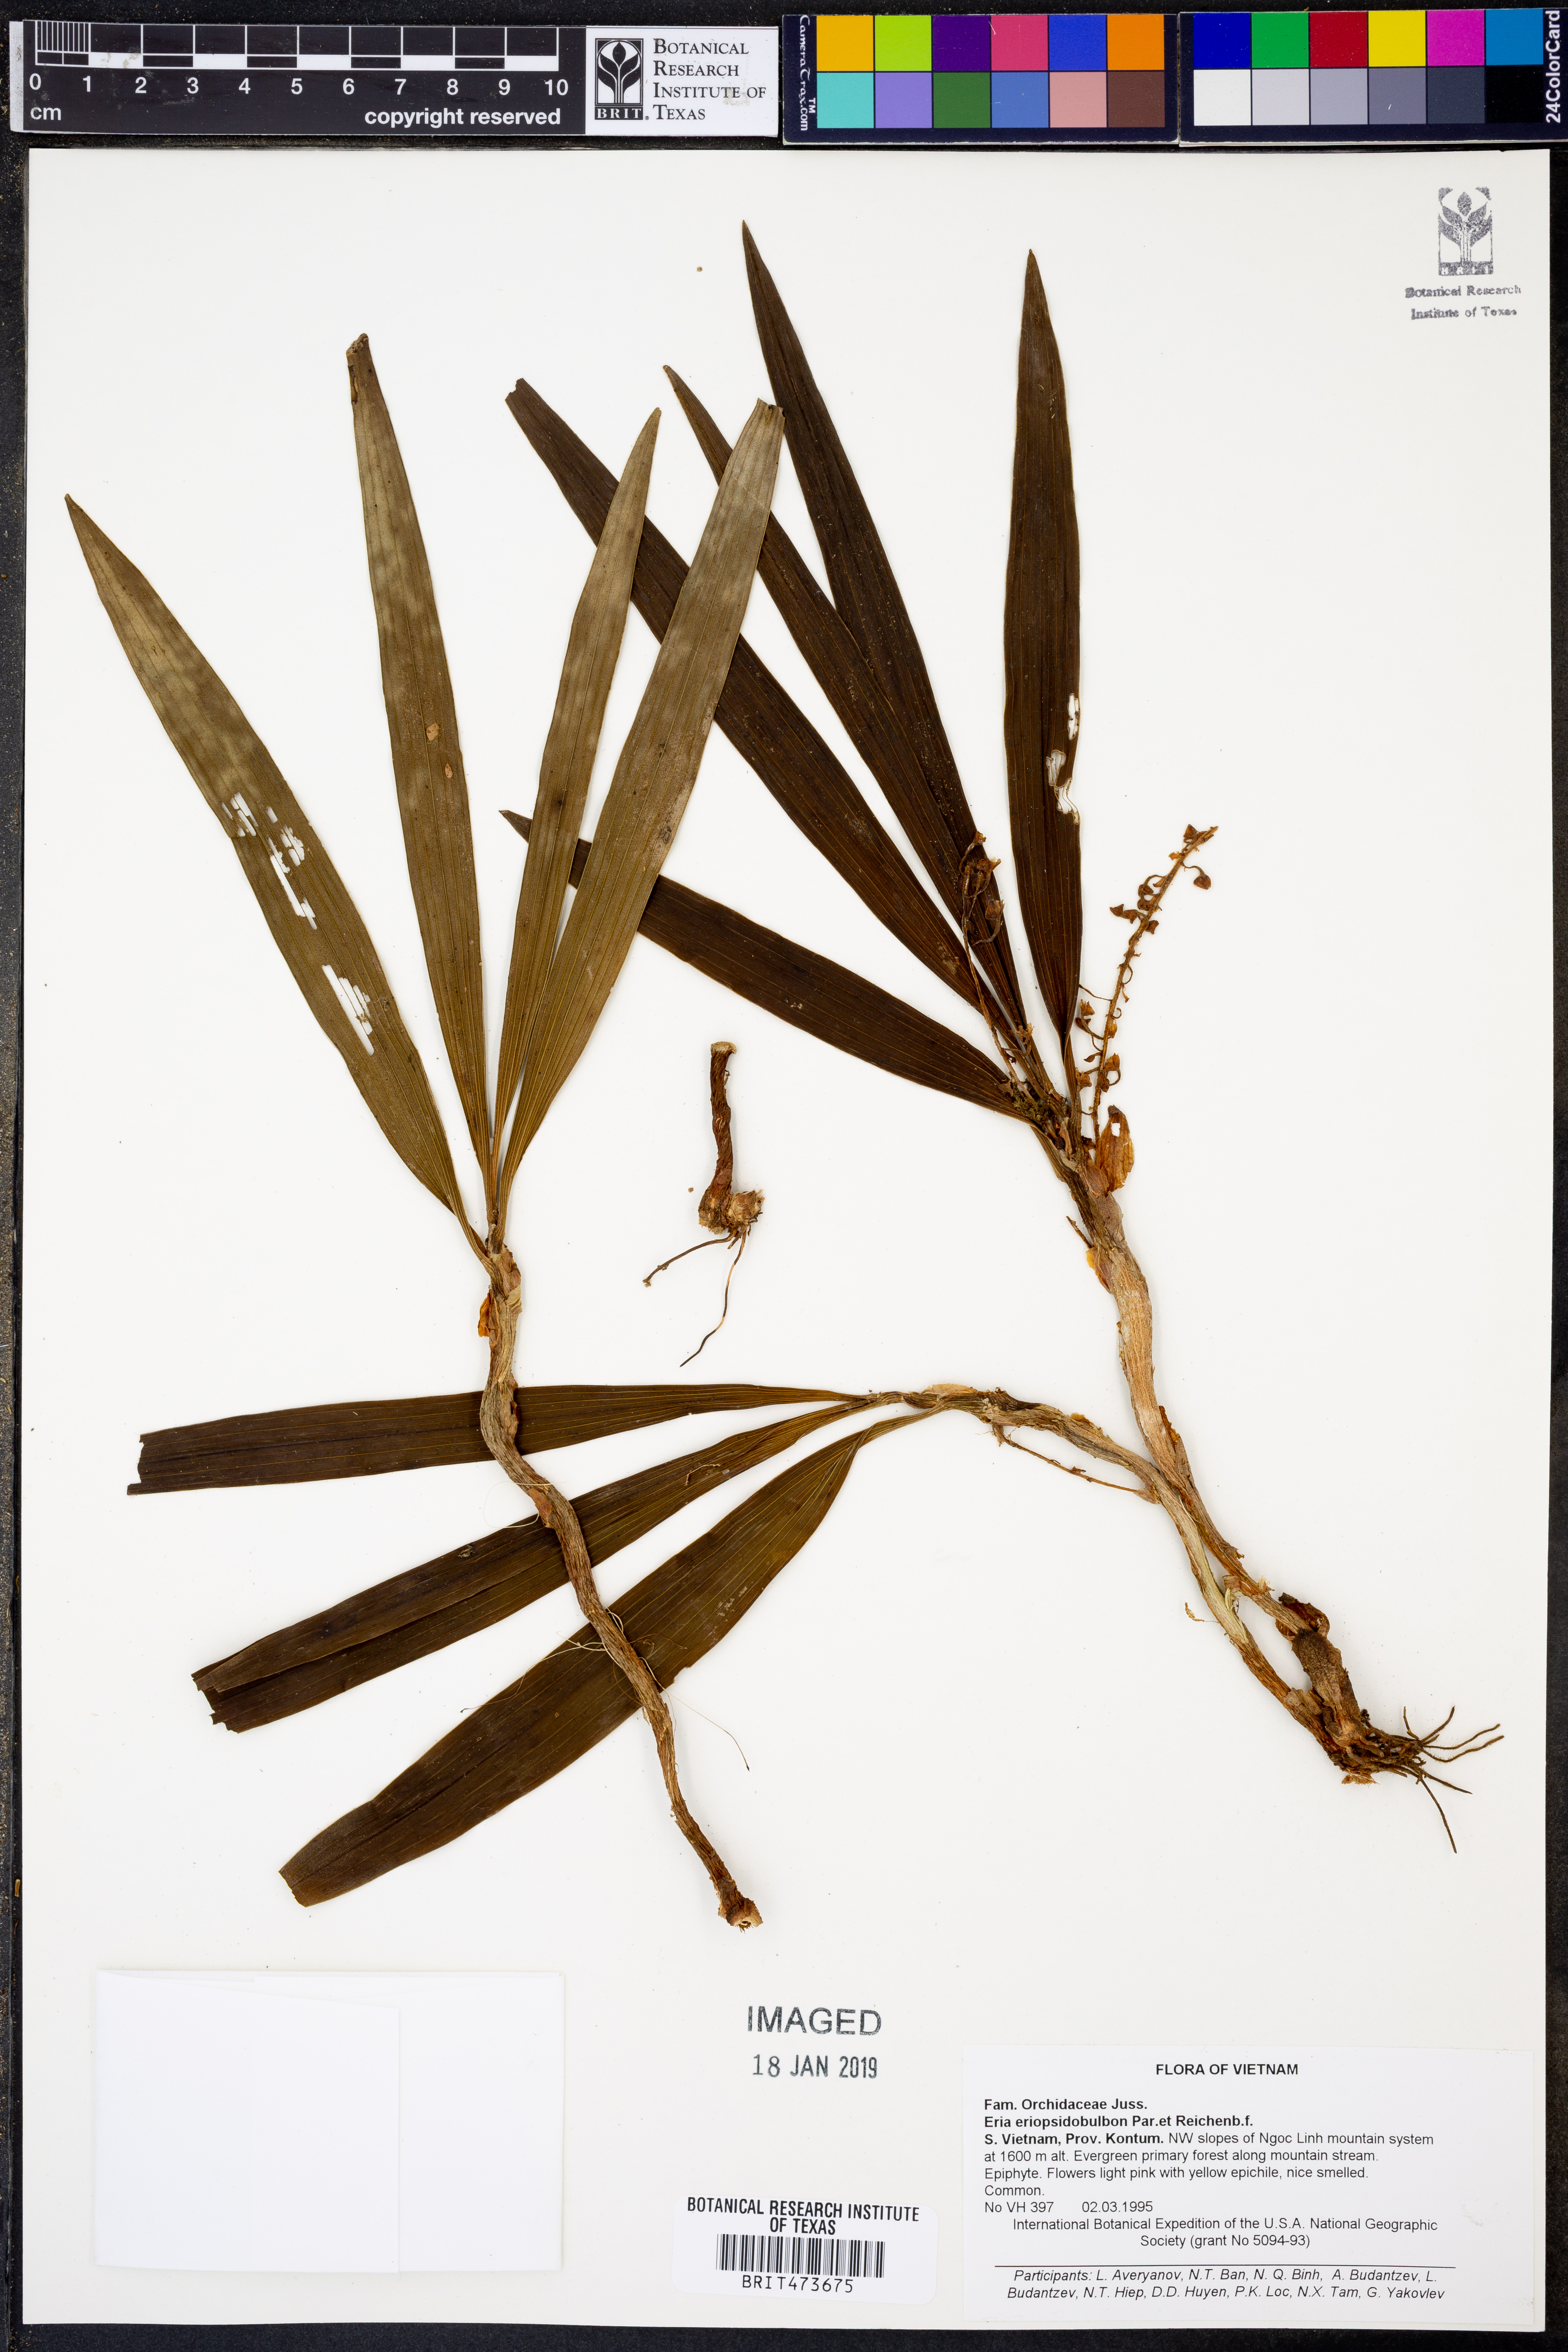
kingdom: Plantae
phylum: Tracheophyta
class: Liliopsida
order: Asparagales
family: Orchidaceae
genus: Pinalia
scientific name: Pinalia eriopsidobulbon
